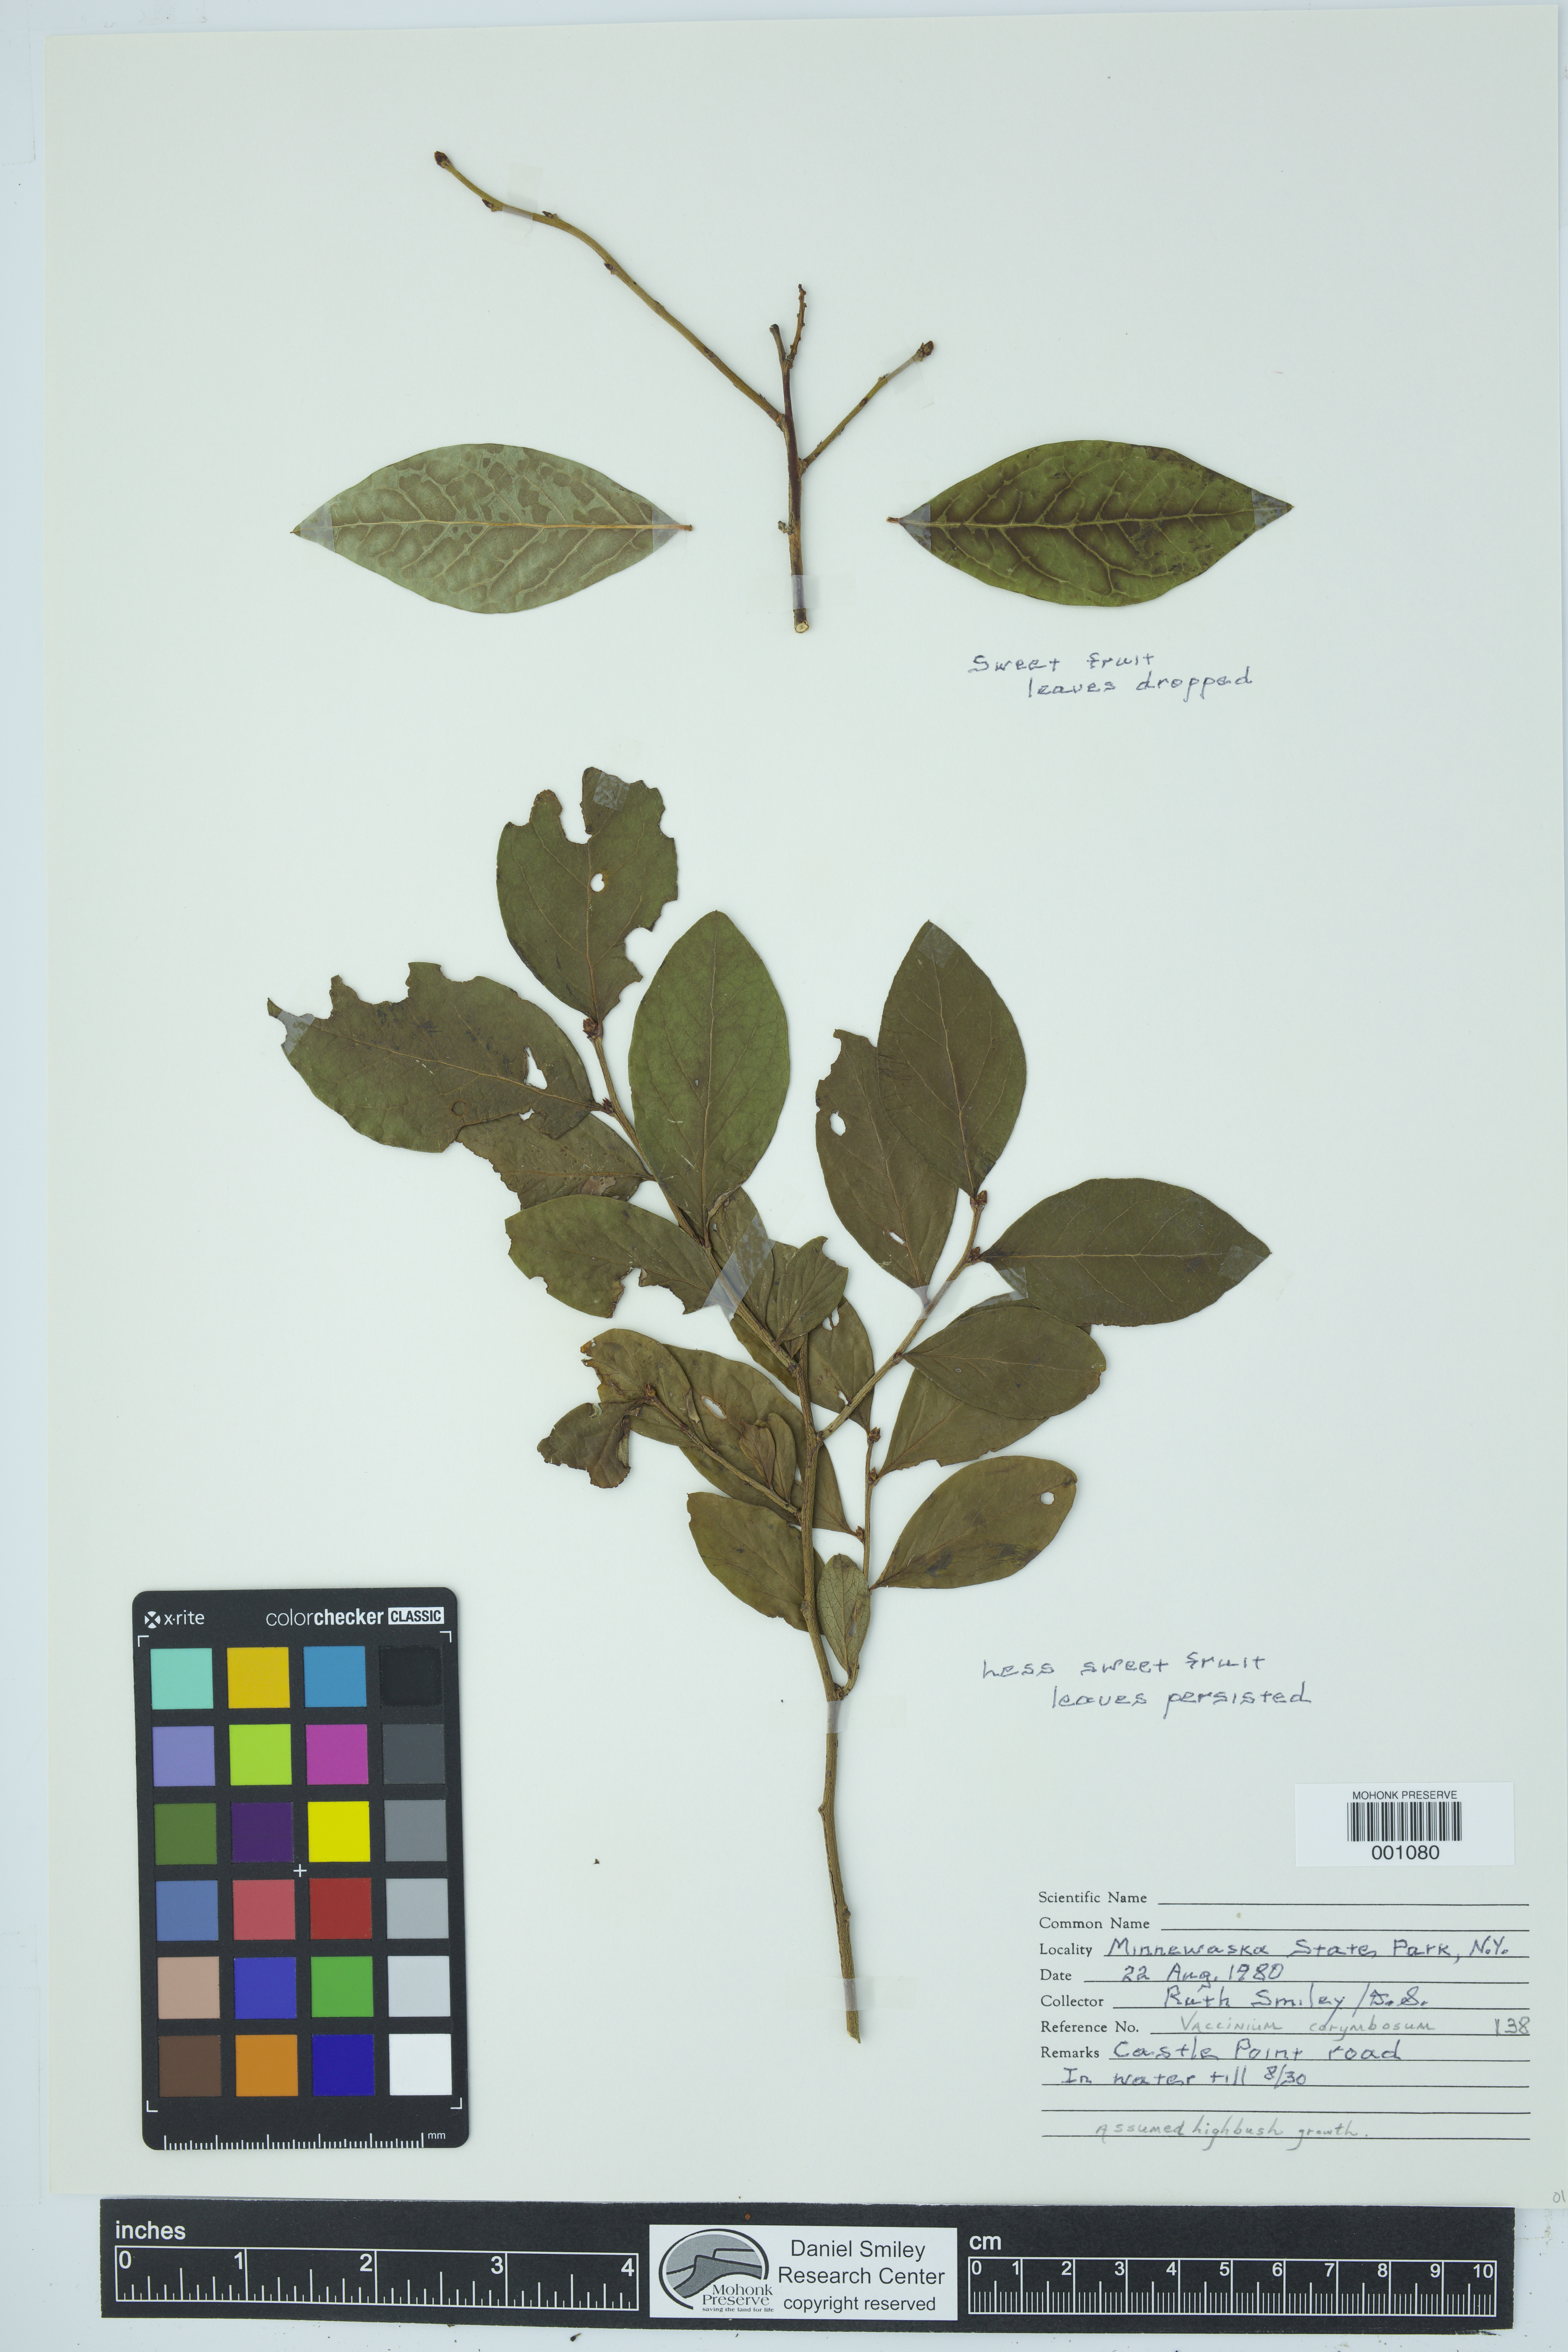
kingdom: Plantae
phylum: Tracheophyta
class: Magnoliopsida
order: Ericales
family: Ericaceae
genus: Vaccinium
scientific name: Vaccinium corymbosum
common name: Blueberry
